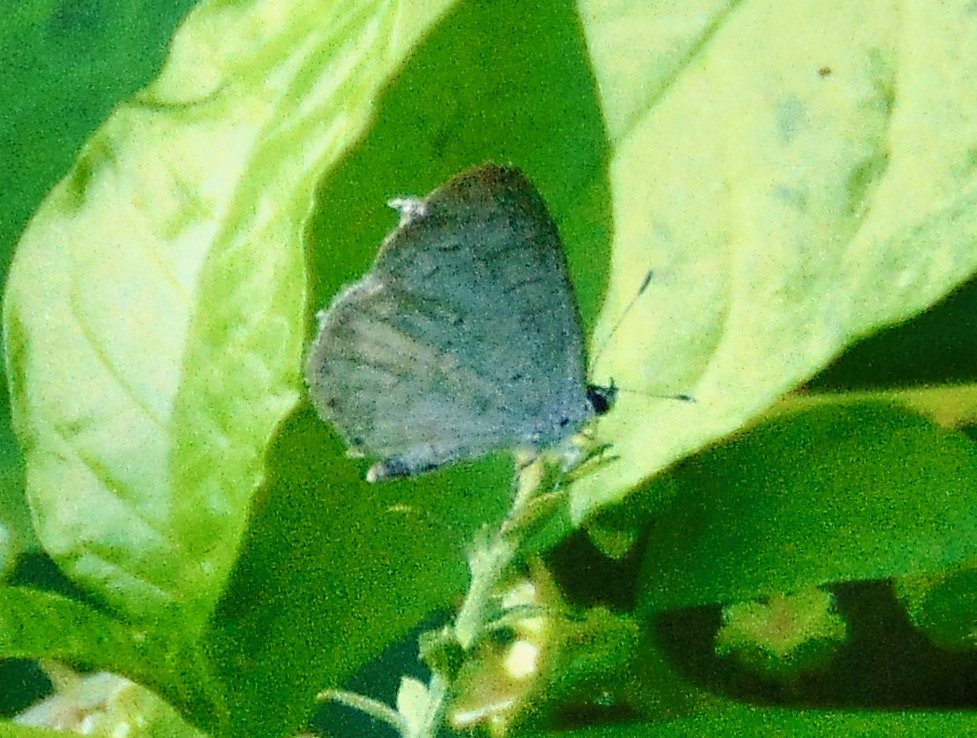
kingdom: Animalia
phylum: Arthropoda
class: Insecta
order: Lepidoptera
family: Lycaenidae
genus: Cyaniris
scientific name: Cyaniris neglecta
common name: Summer Azure
